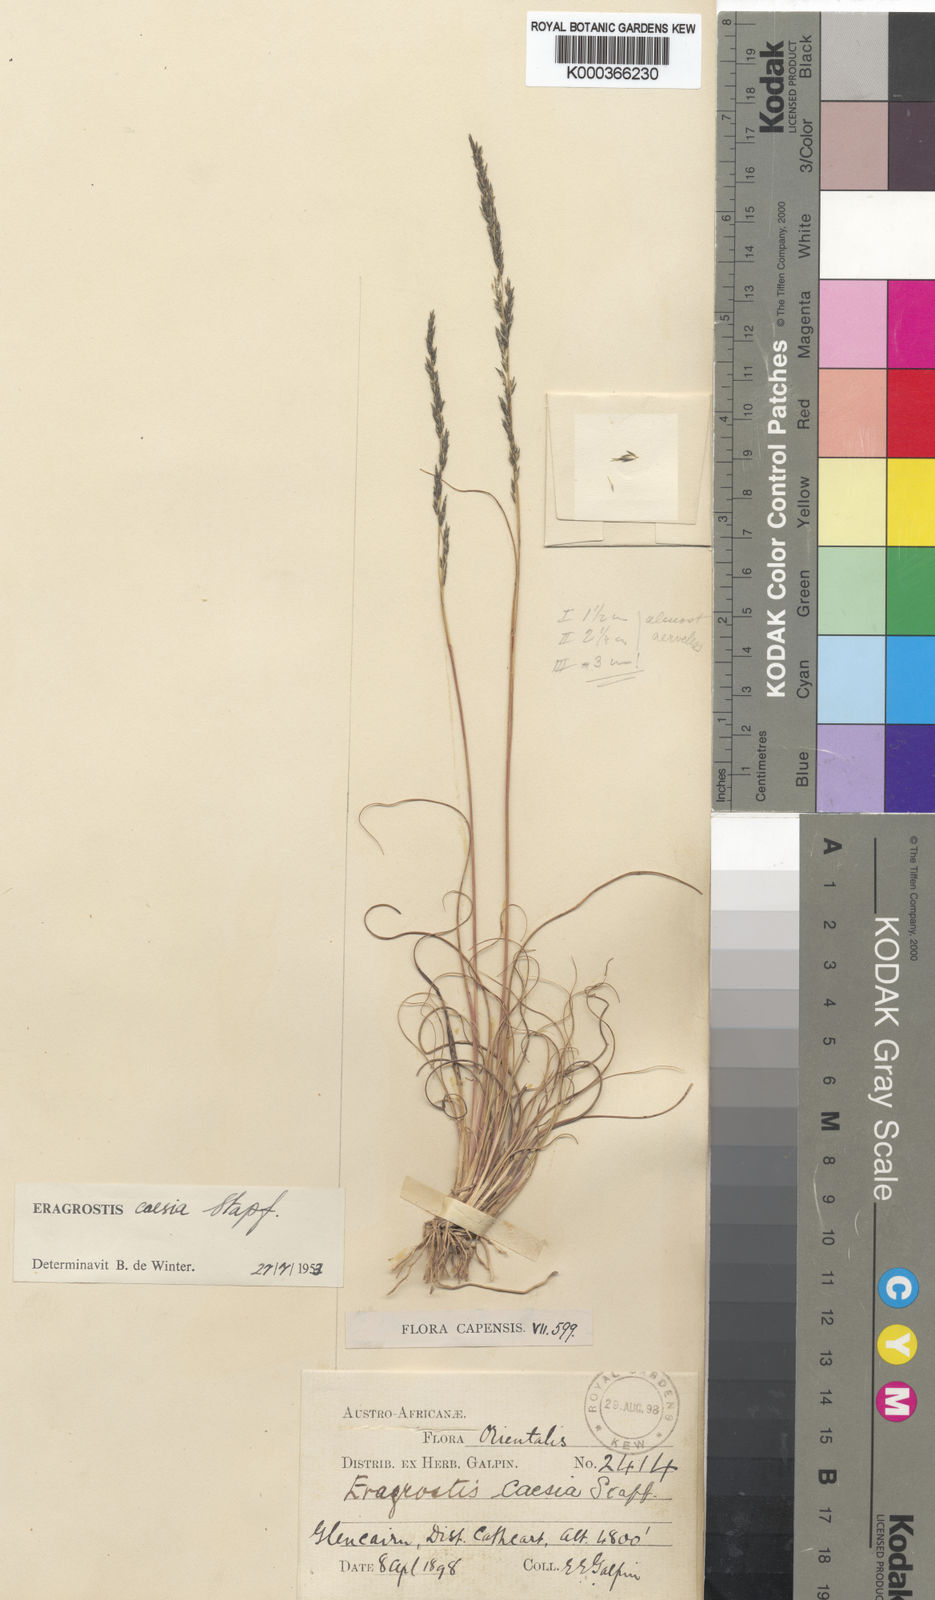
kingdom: Plantae
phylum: Tracheophyta
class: Liliopsida
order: Poales
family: Poaceae
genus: Eragrostis
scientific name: Eragrostis caesia
